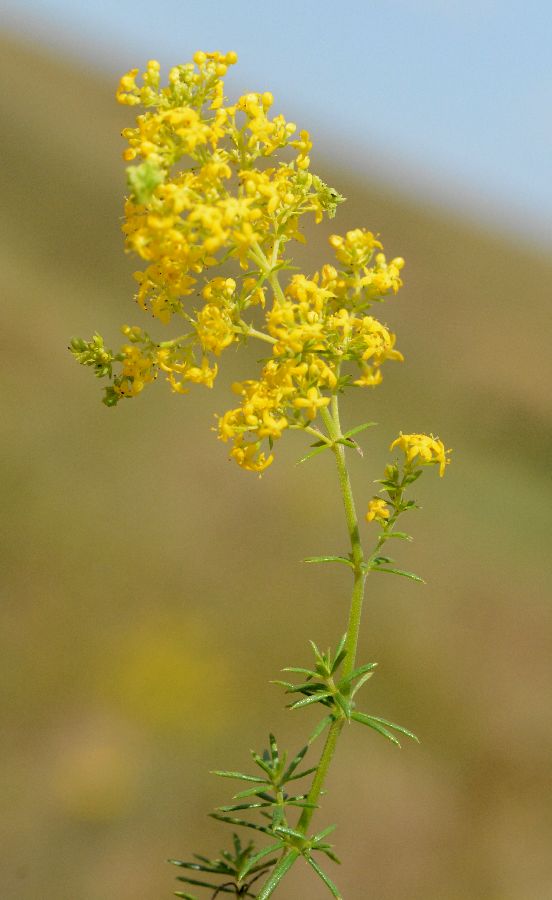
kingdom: Plantae
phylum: Tracheophyta
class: Magnoliopsida
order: Gentianales
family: Rubiaceae
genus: Galium
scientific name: Galium verum
